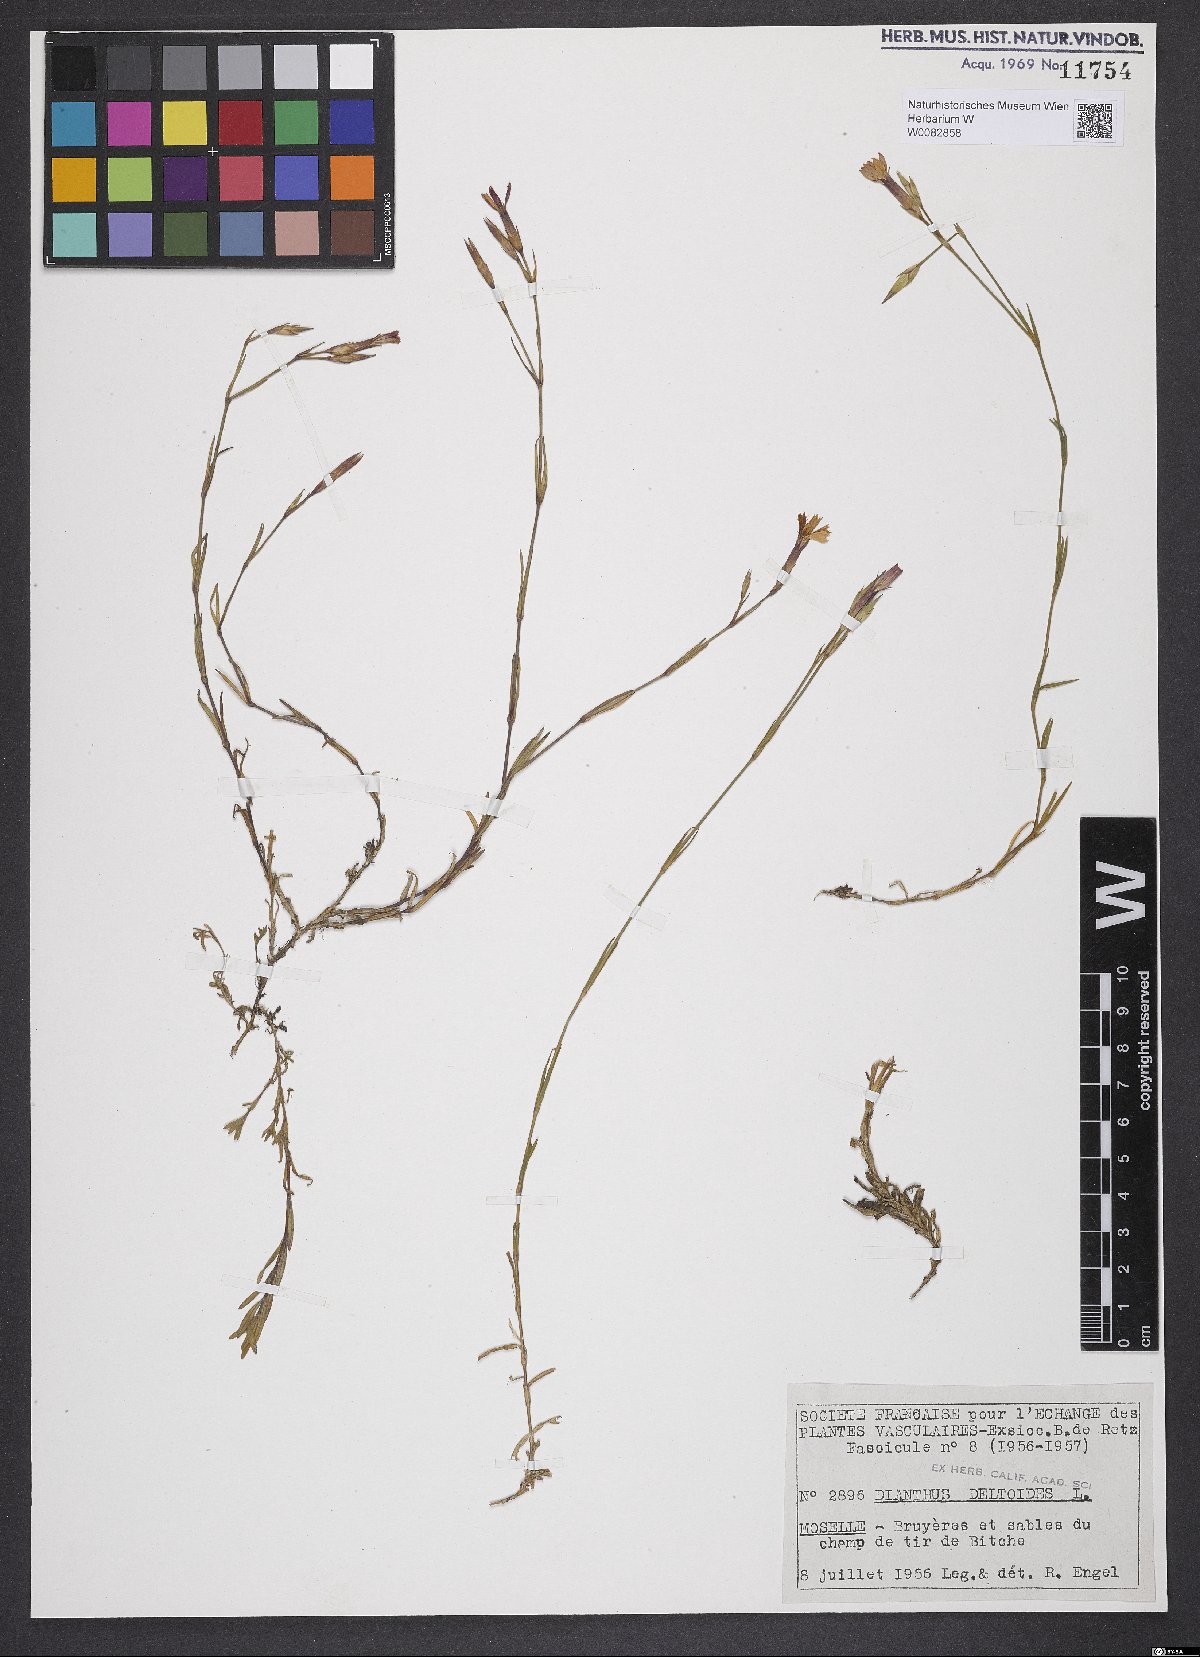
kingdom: Plantae
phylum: Tracheophyta
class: Magnoliopsida
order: Caryophyllales
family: Caryophyllaceae
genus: Dianthus
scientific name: Dianthus deltoides
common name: Maiden pink
